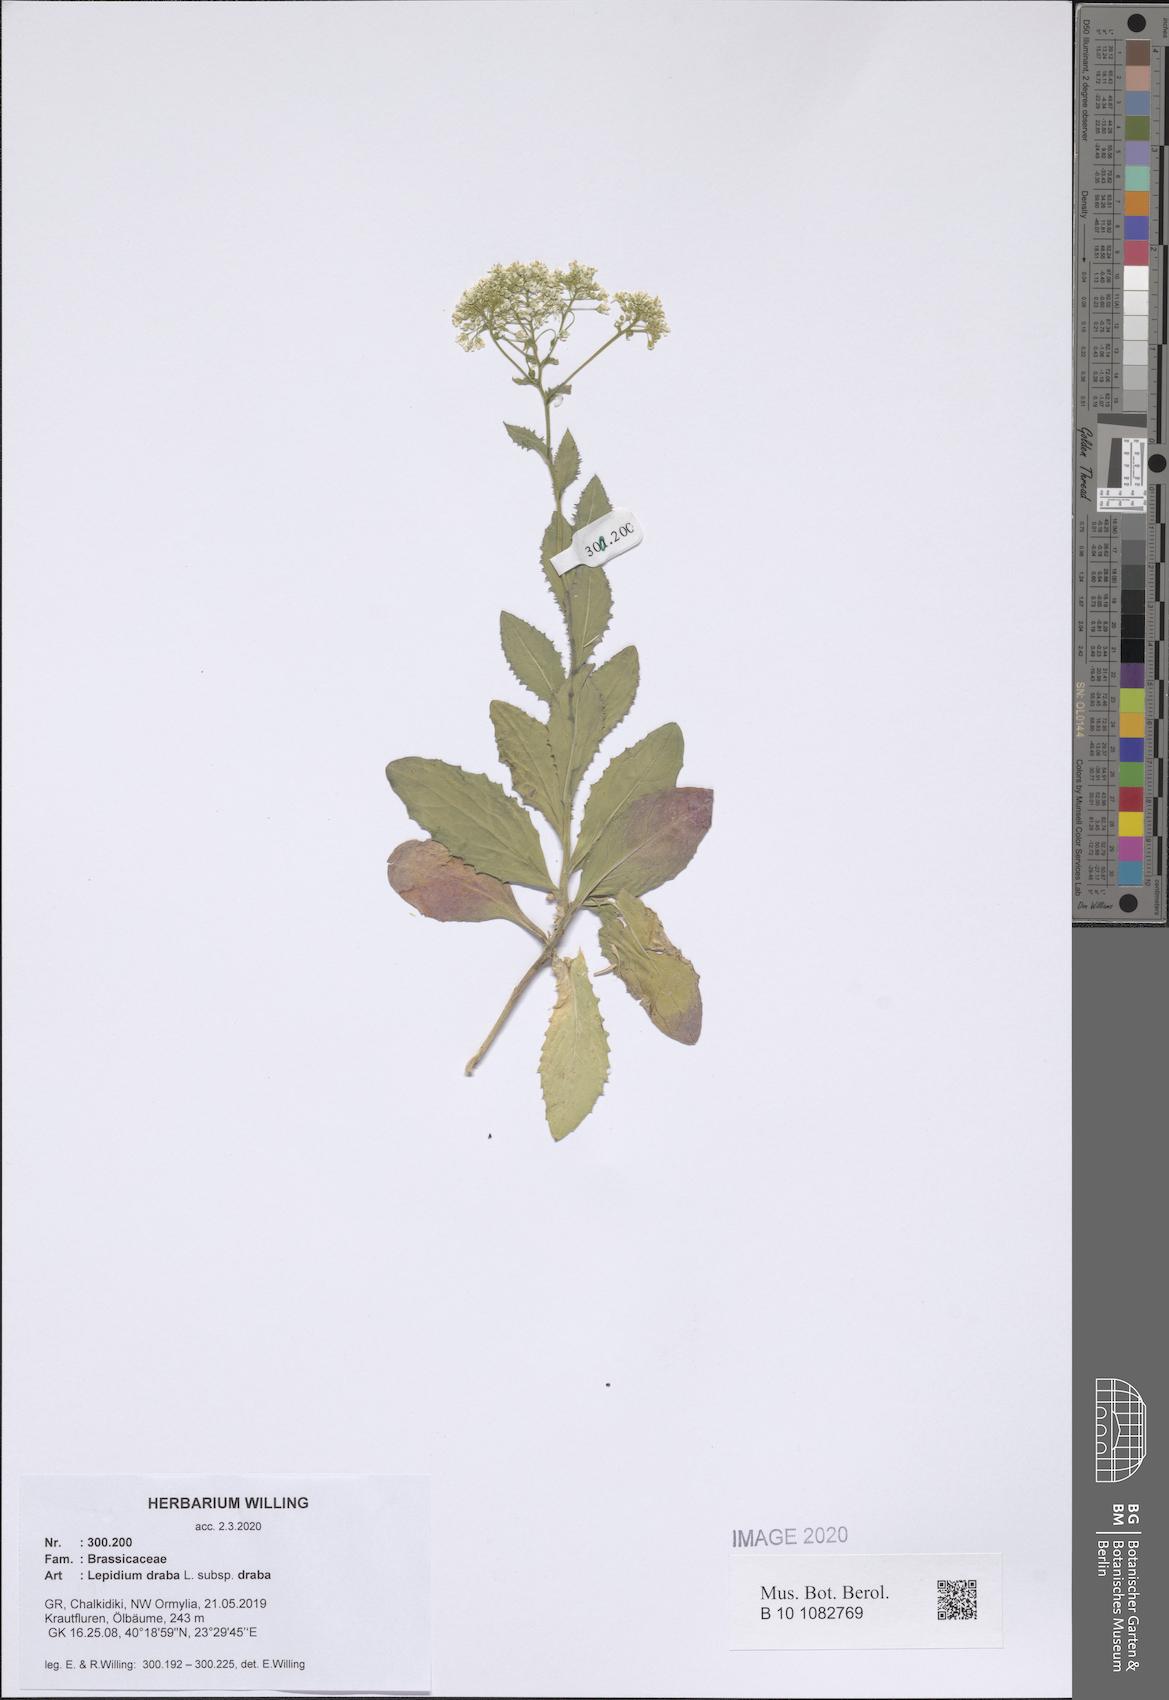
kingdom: Plantae
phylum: Tracheophyta
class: Magnoliopsida
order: Brassicales
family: Brassicaceae
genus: Lepidium
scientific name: Lepidium draba
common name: Hoary cress
